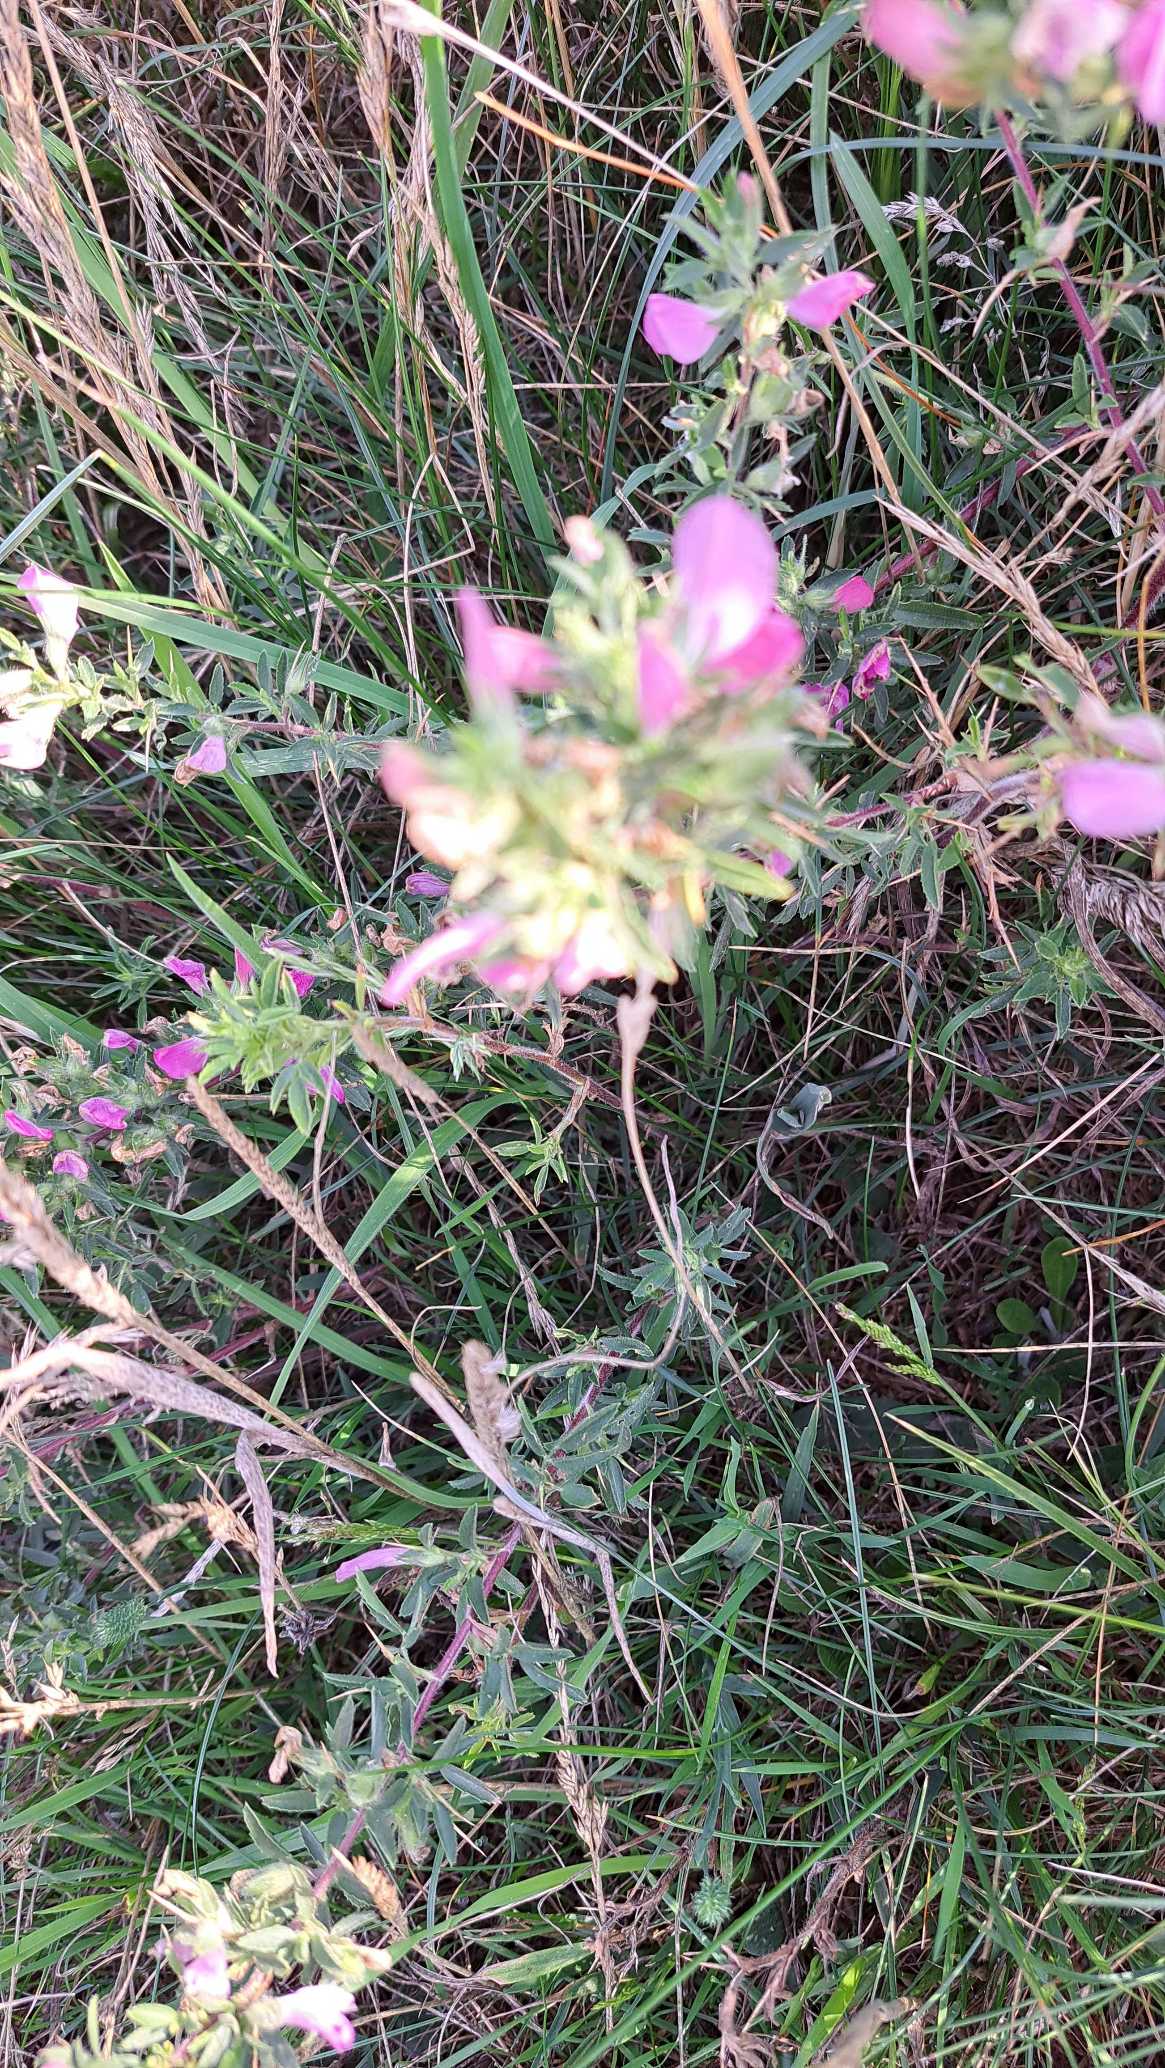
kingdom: Plantae
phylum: Tracheophyta
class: Magnoliopsida
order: Fabales
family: Fabaceae
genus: Ononis
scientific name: Ononis spinosa
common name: Strand-krageklo
